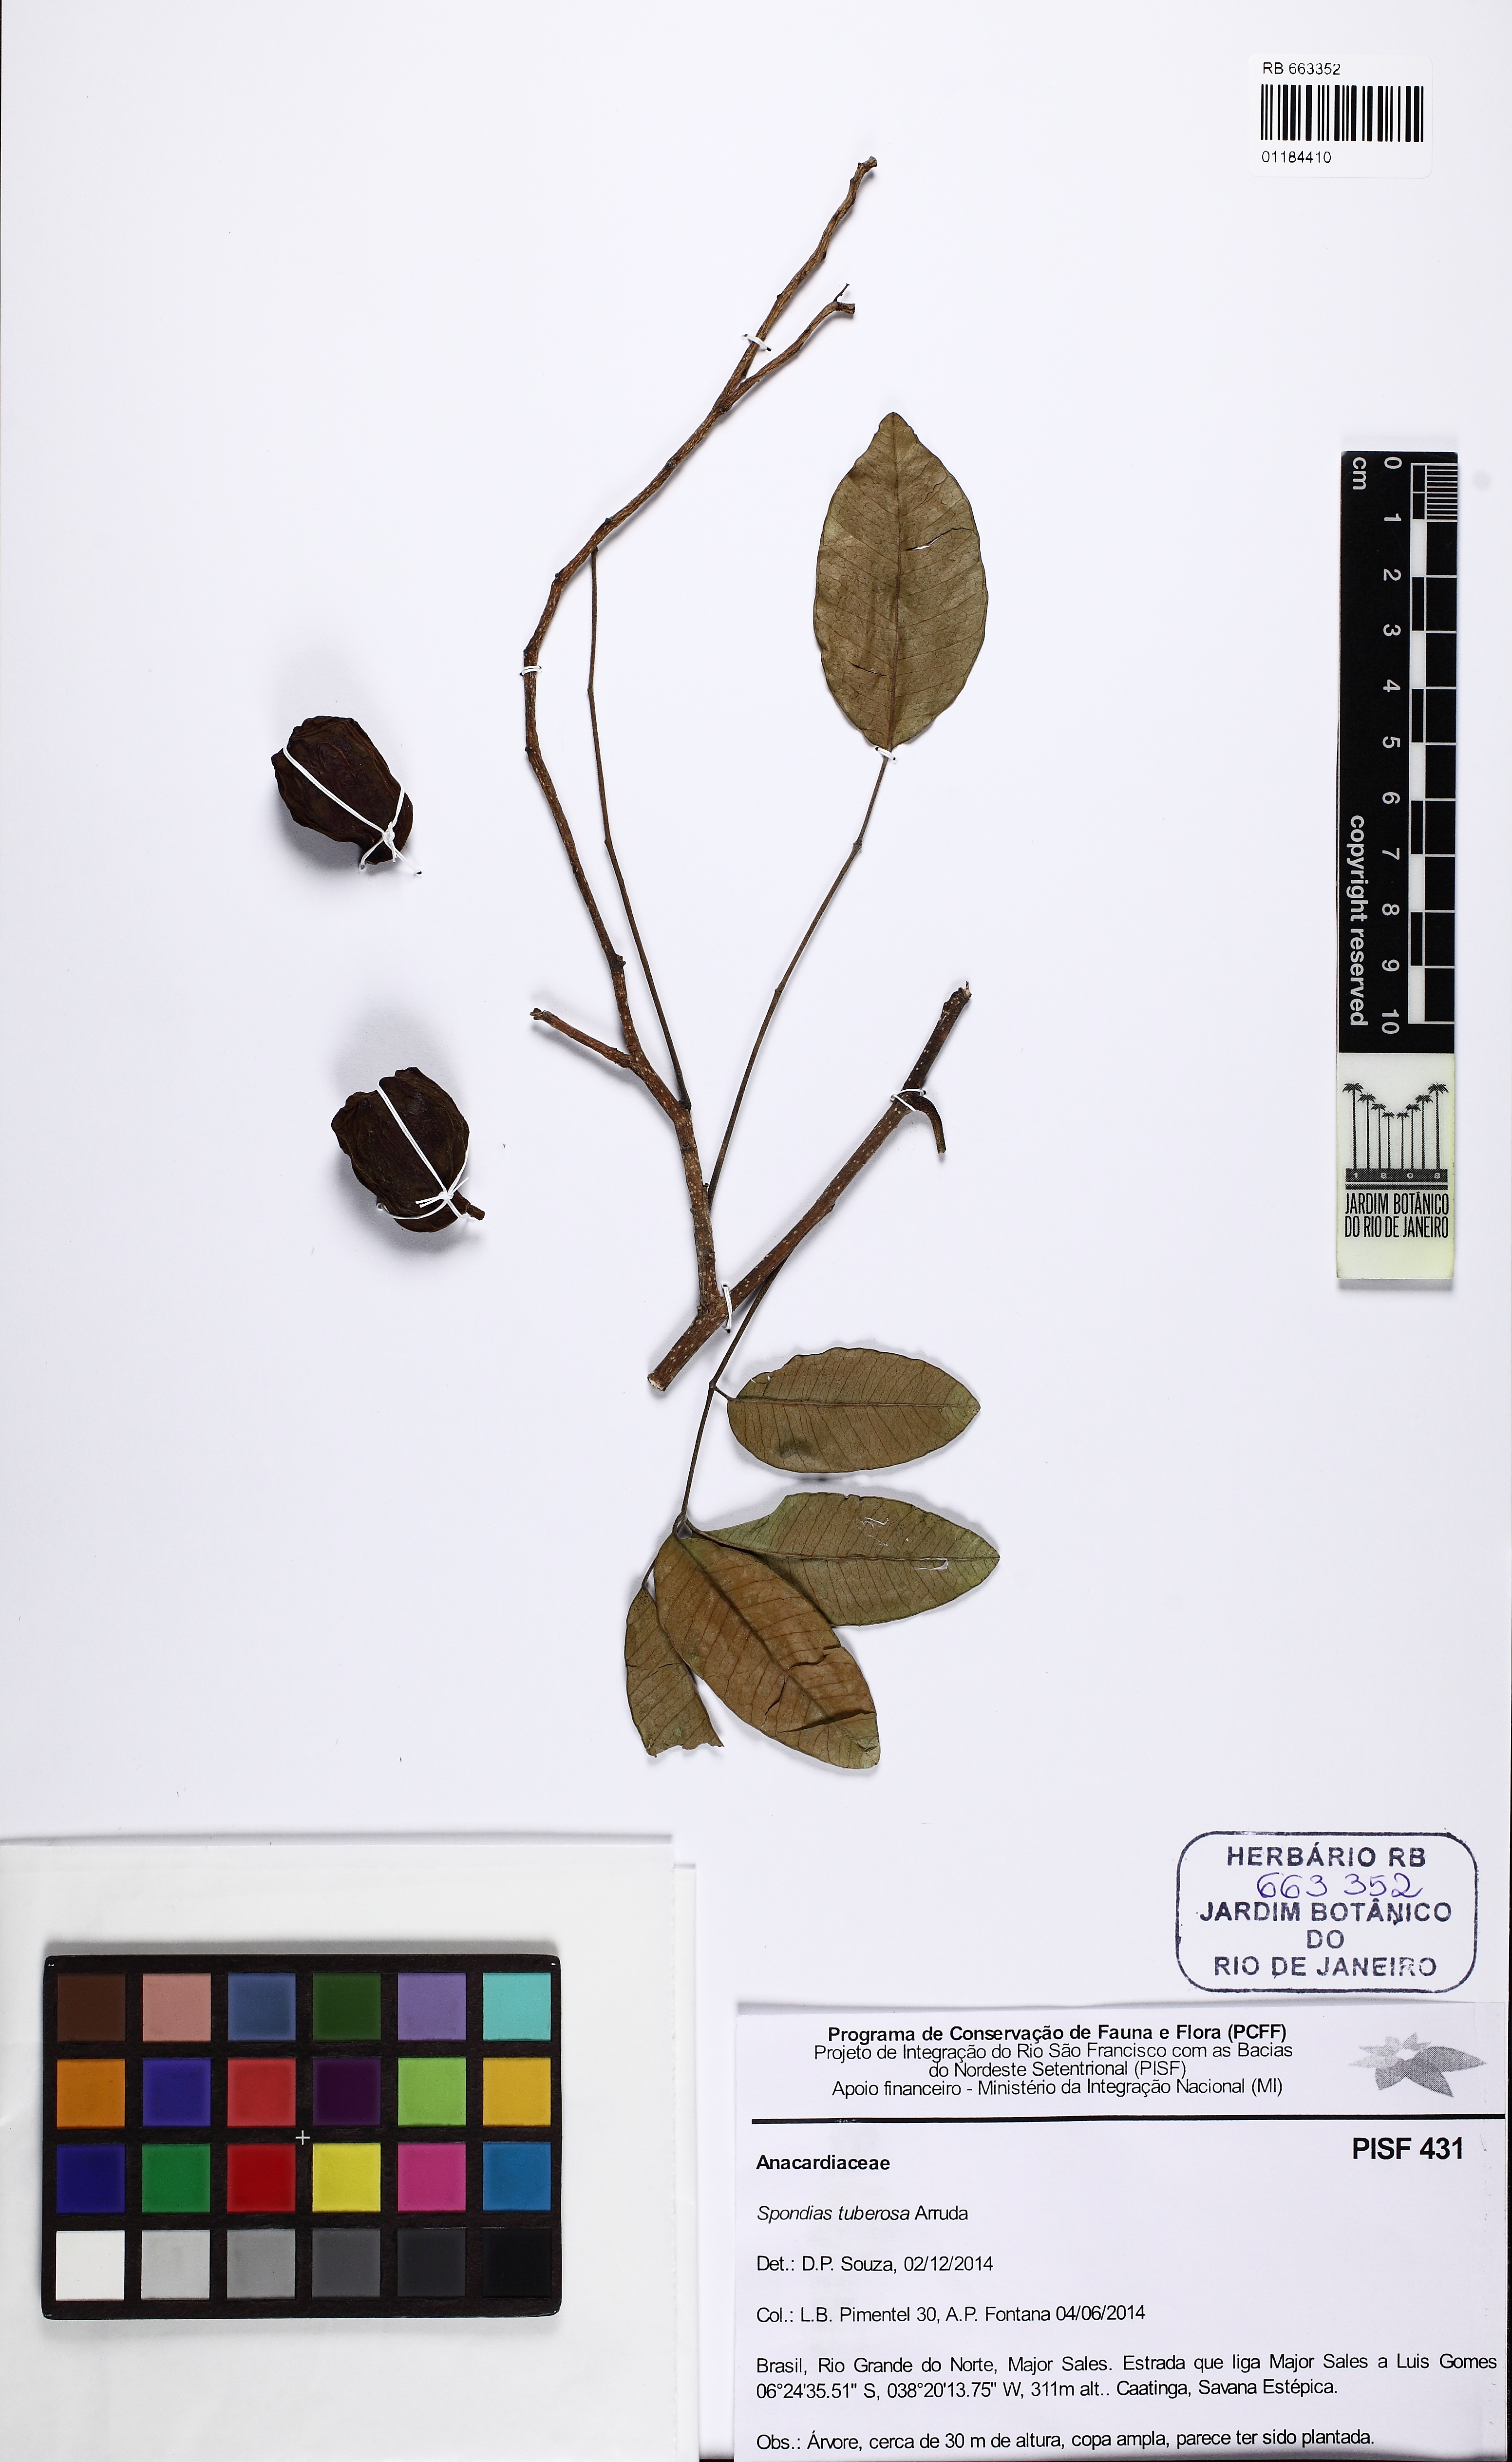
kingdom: Plantae
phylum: Tracheophyta
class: Magnoliopsida
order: Sapindales
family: Anacardiaceae
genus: Spondias
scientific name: Spondias tuberosa
